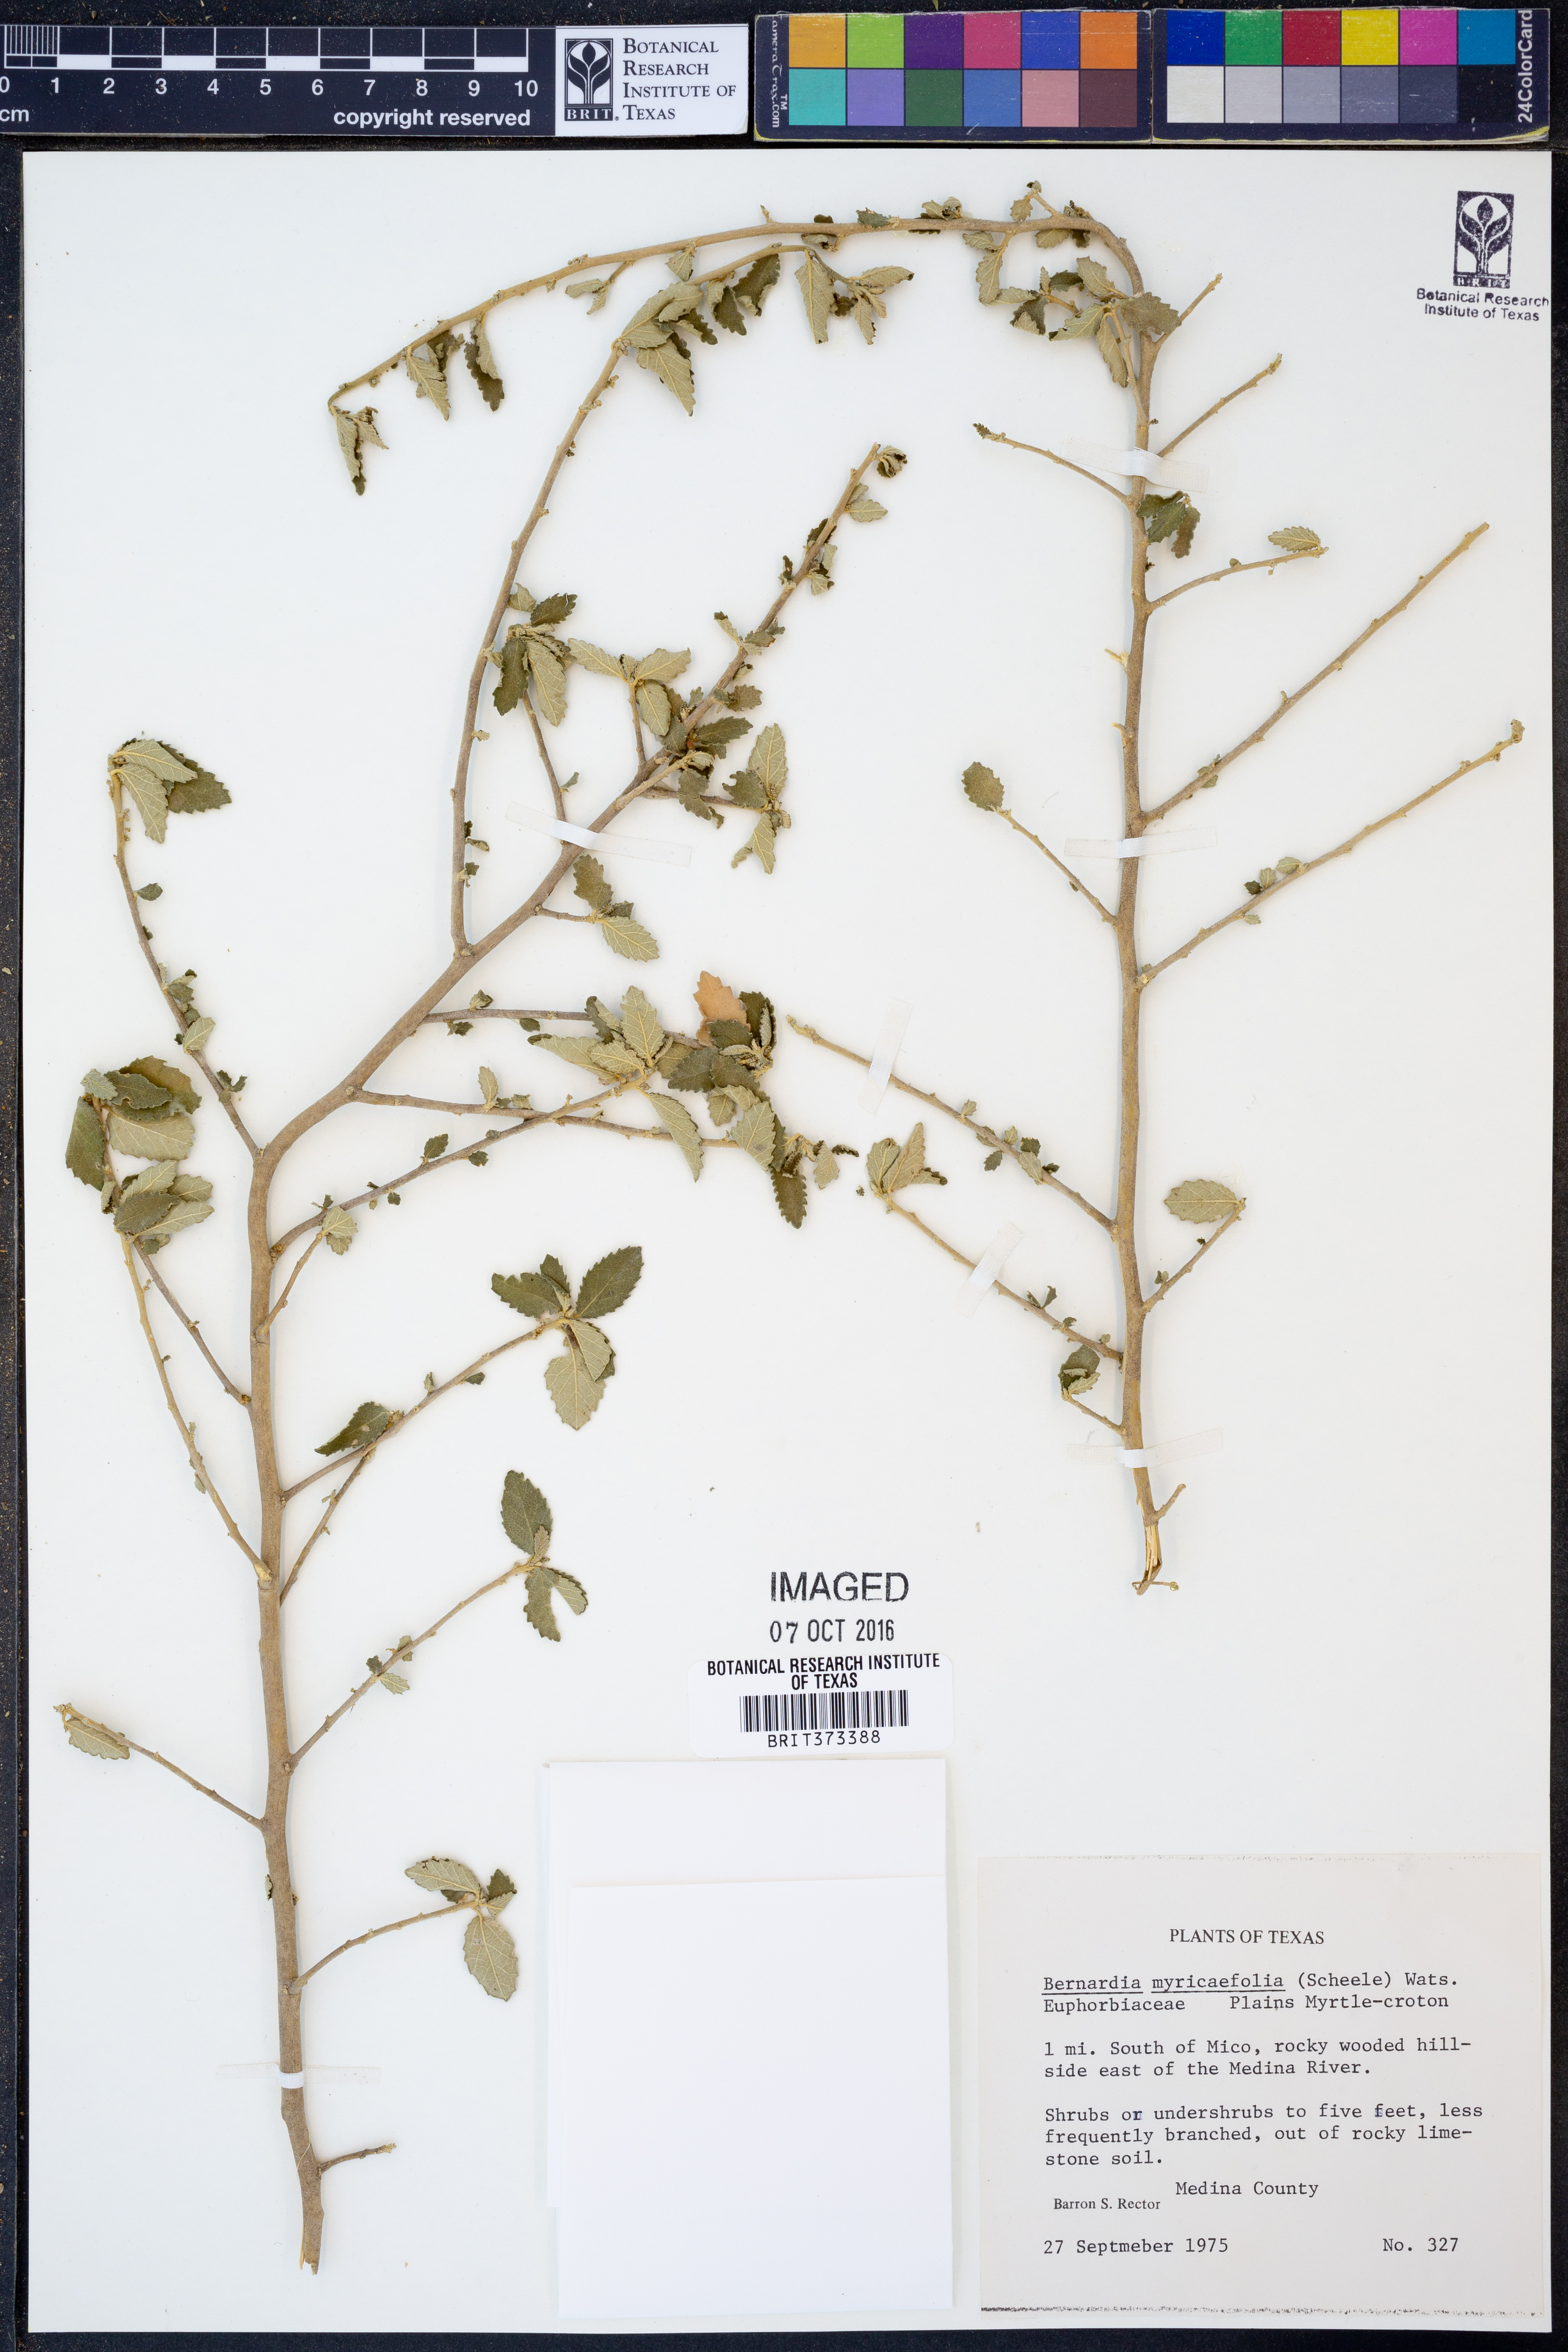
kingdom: Plantae
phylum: Tracheophyta
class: Magnoliopsida
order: Malpighiales
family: Euphorbiaceae
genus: Bernardia
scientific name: Bernardia myricifolia
